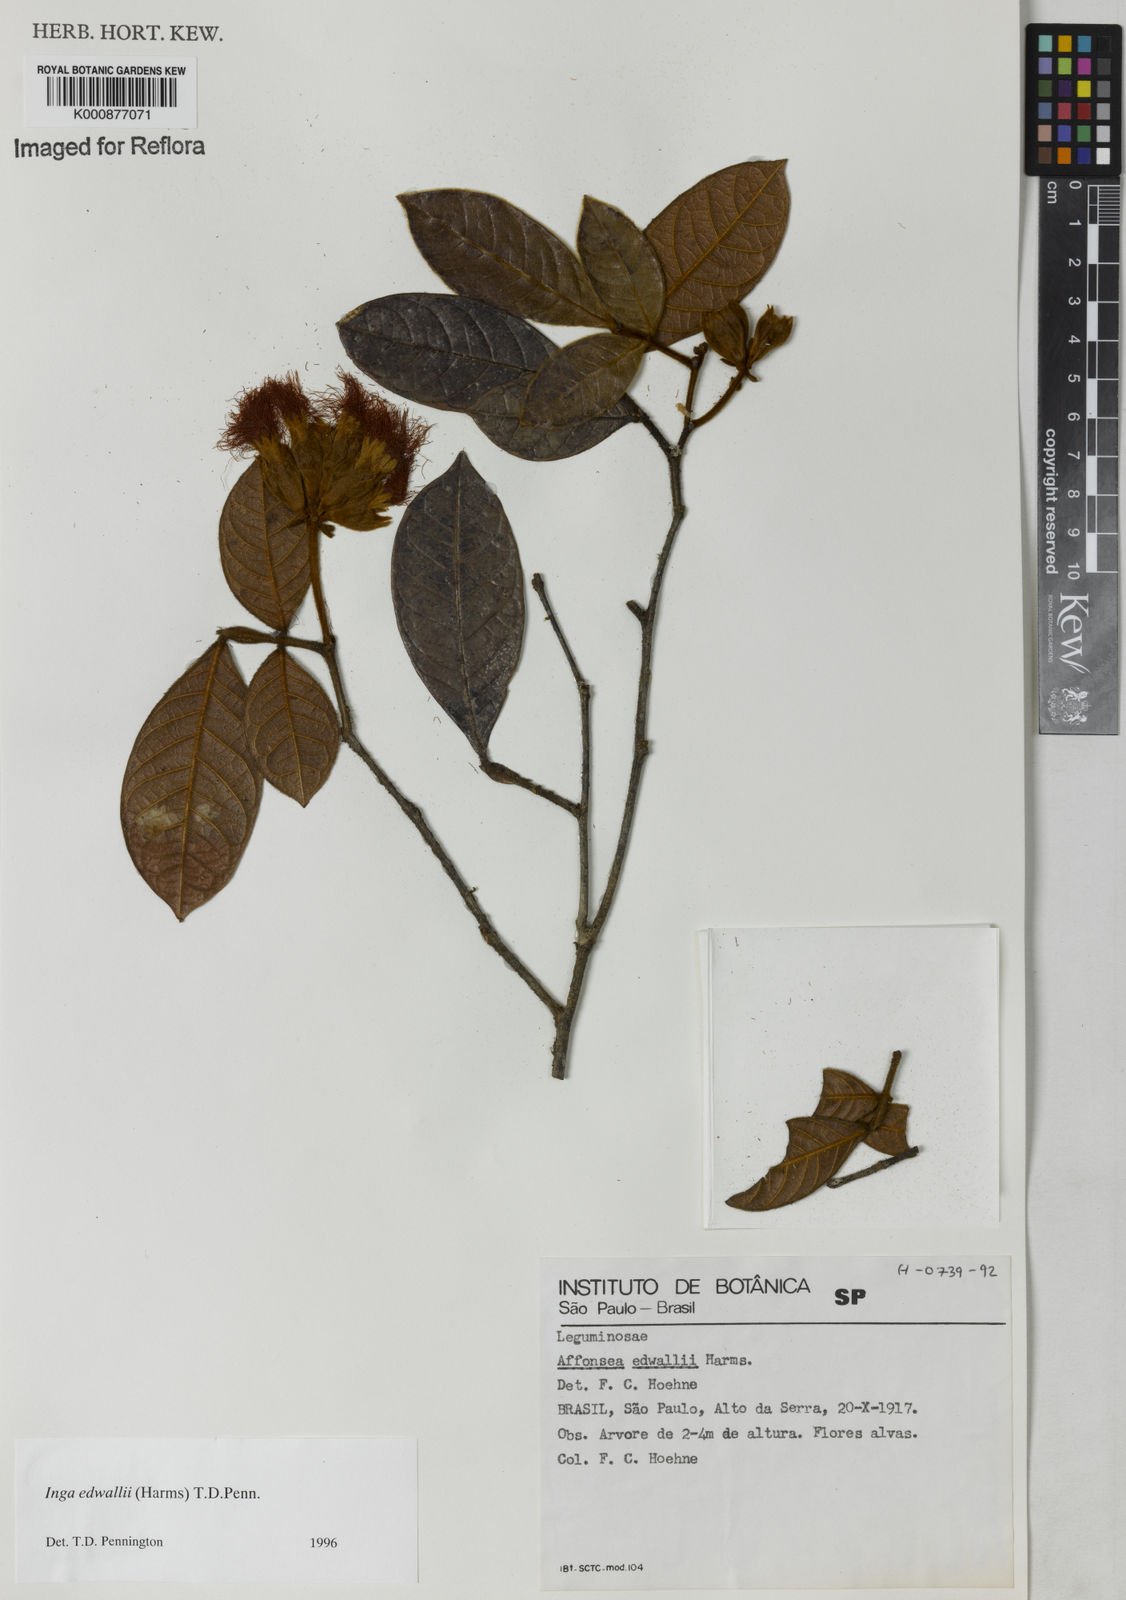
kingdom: Plantae
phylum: Tracheophyta
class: Magnoliopsida
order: Fabales
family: Fabaceae
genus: Inga
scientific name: Inga edwallii
